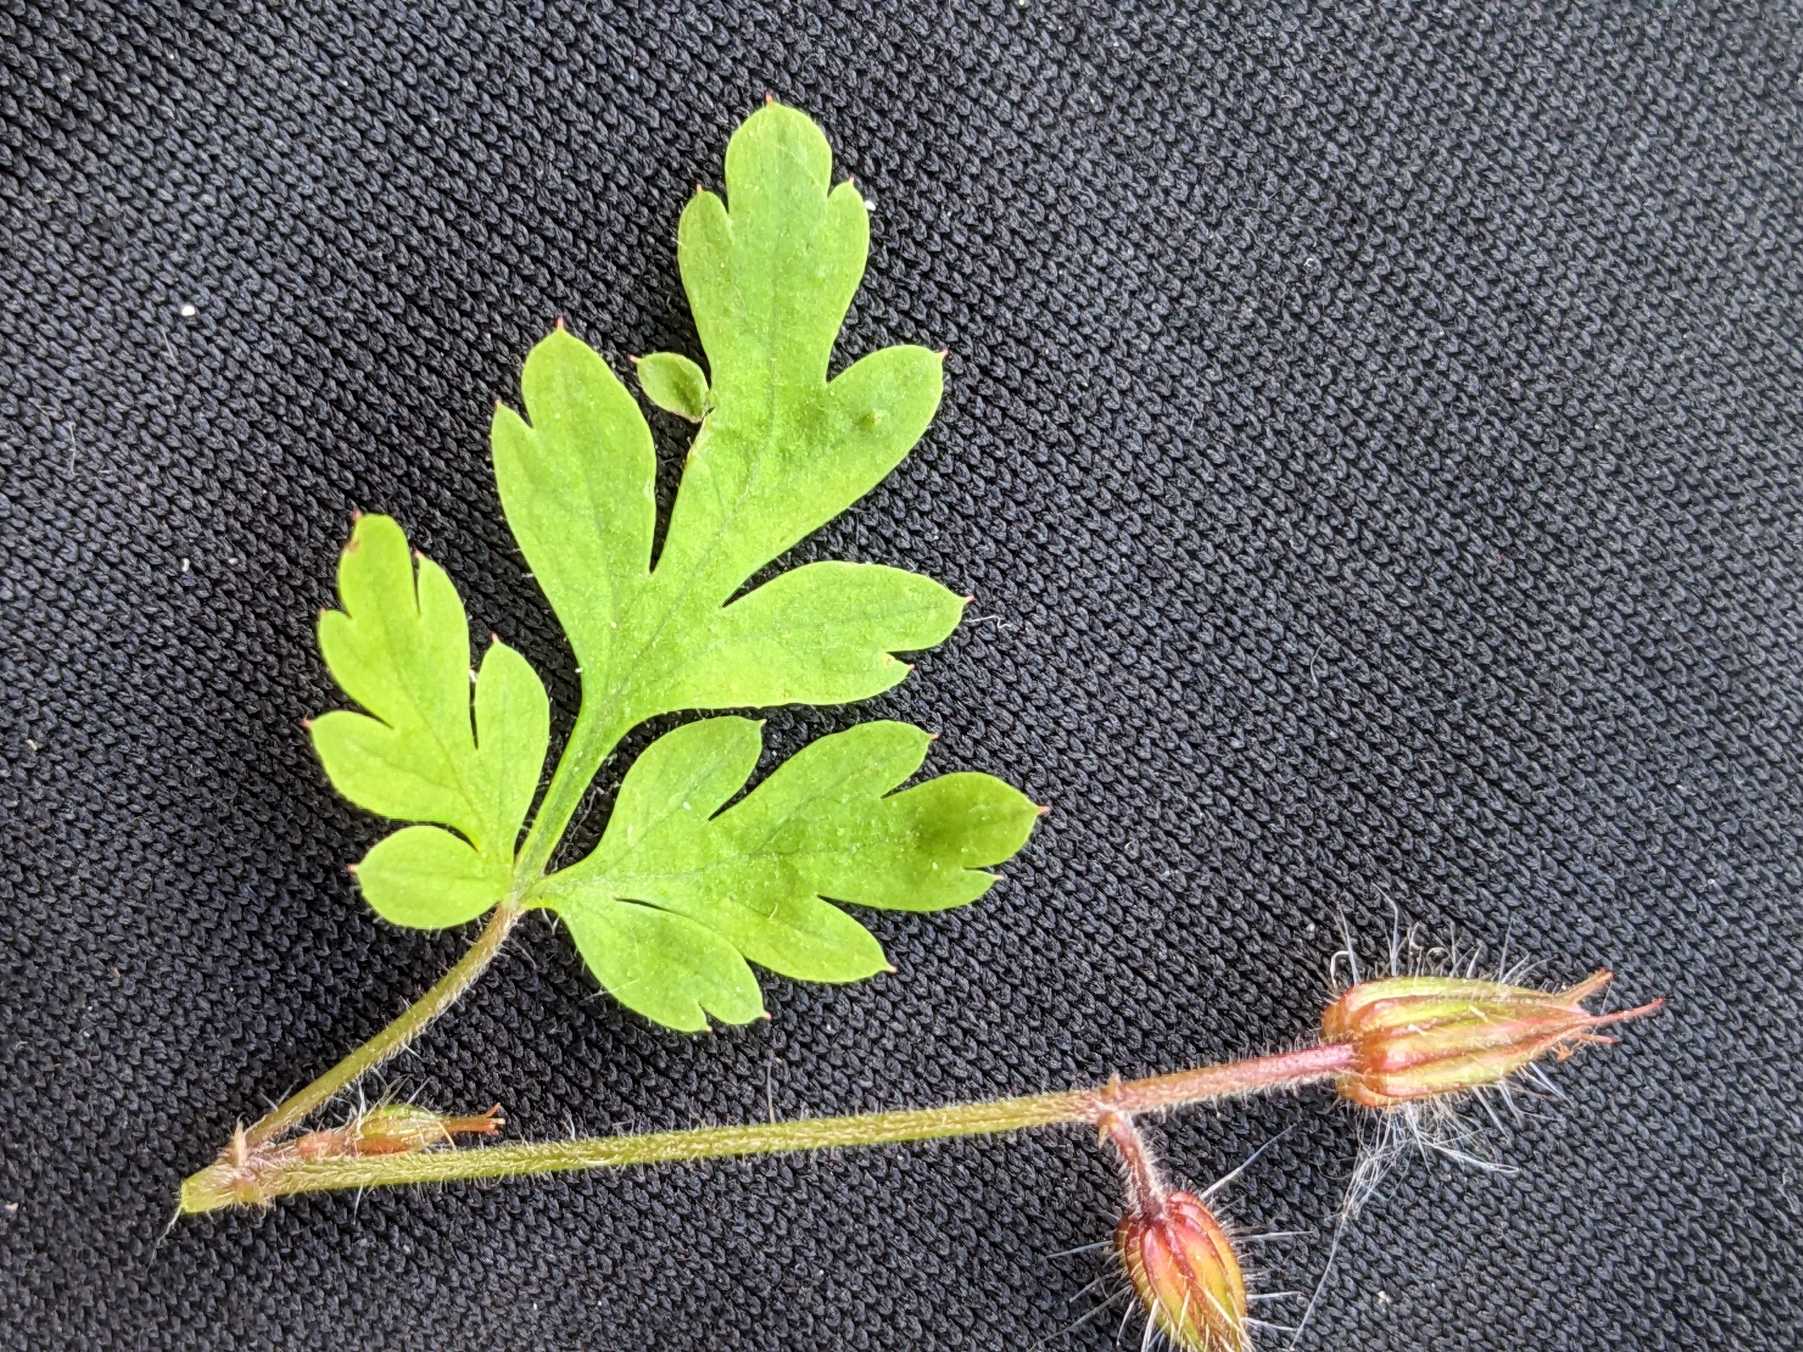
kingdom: Plantae
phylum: Tracheophyta
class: Magnoliopsida
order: Geraniales
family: Geraniaceae
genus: Geranium
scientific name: Geranium robertianum
